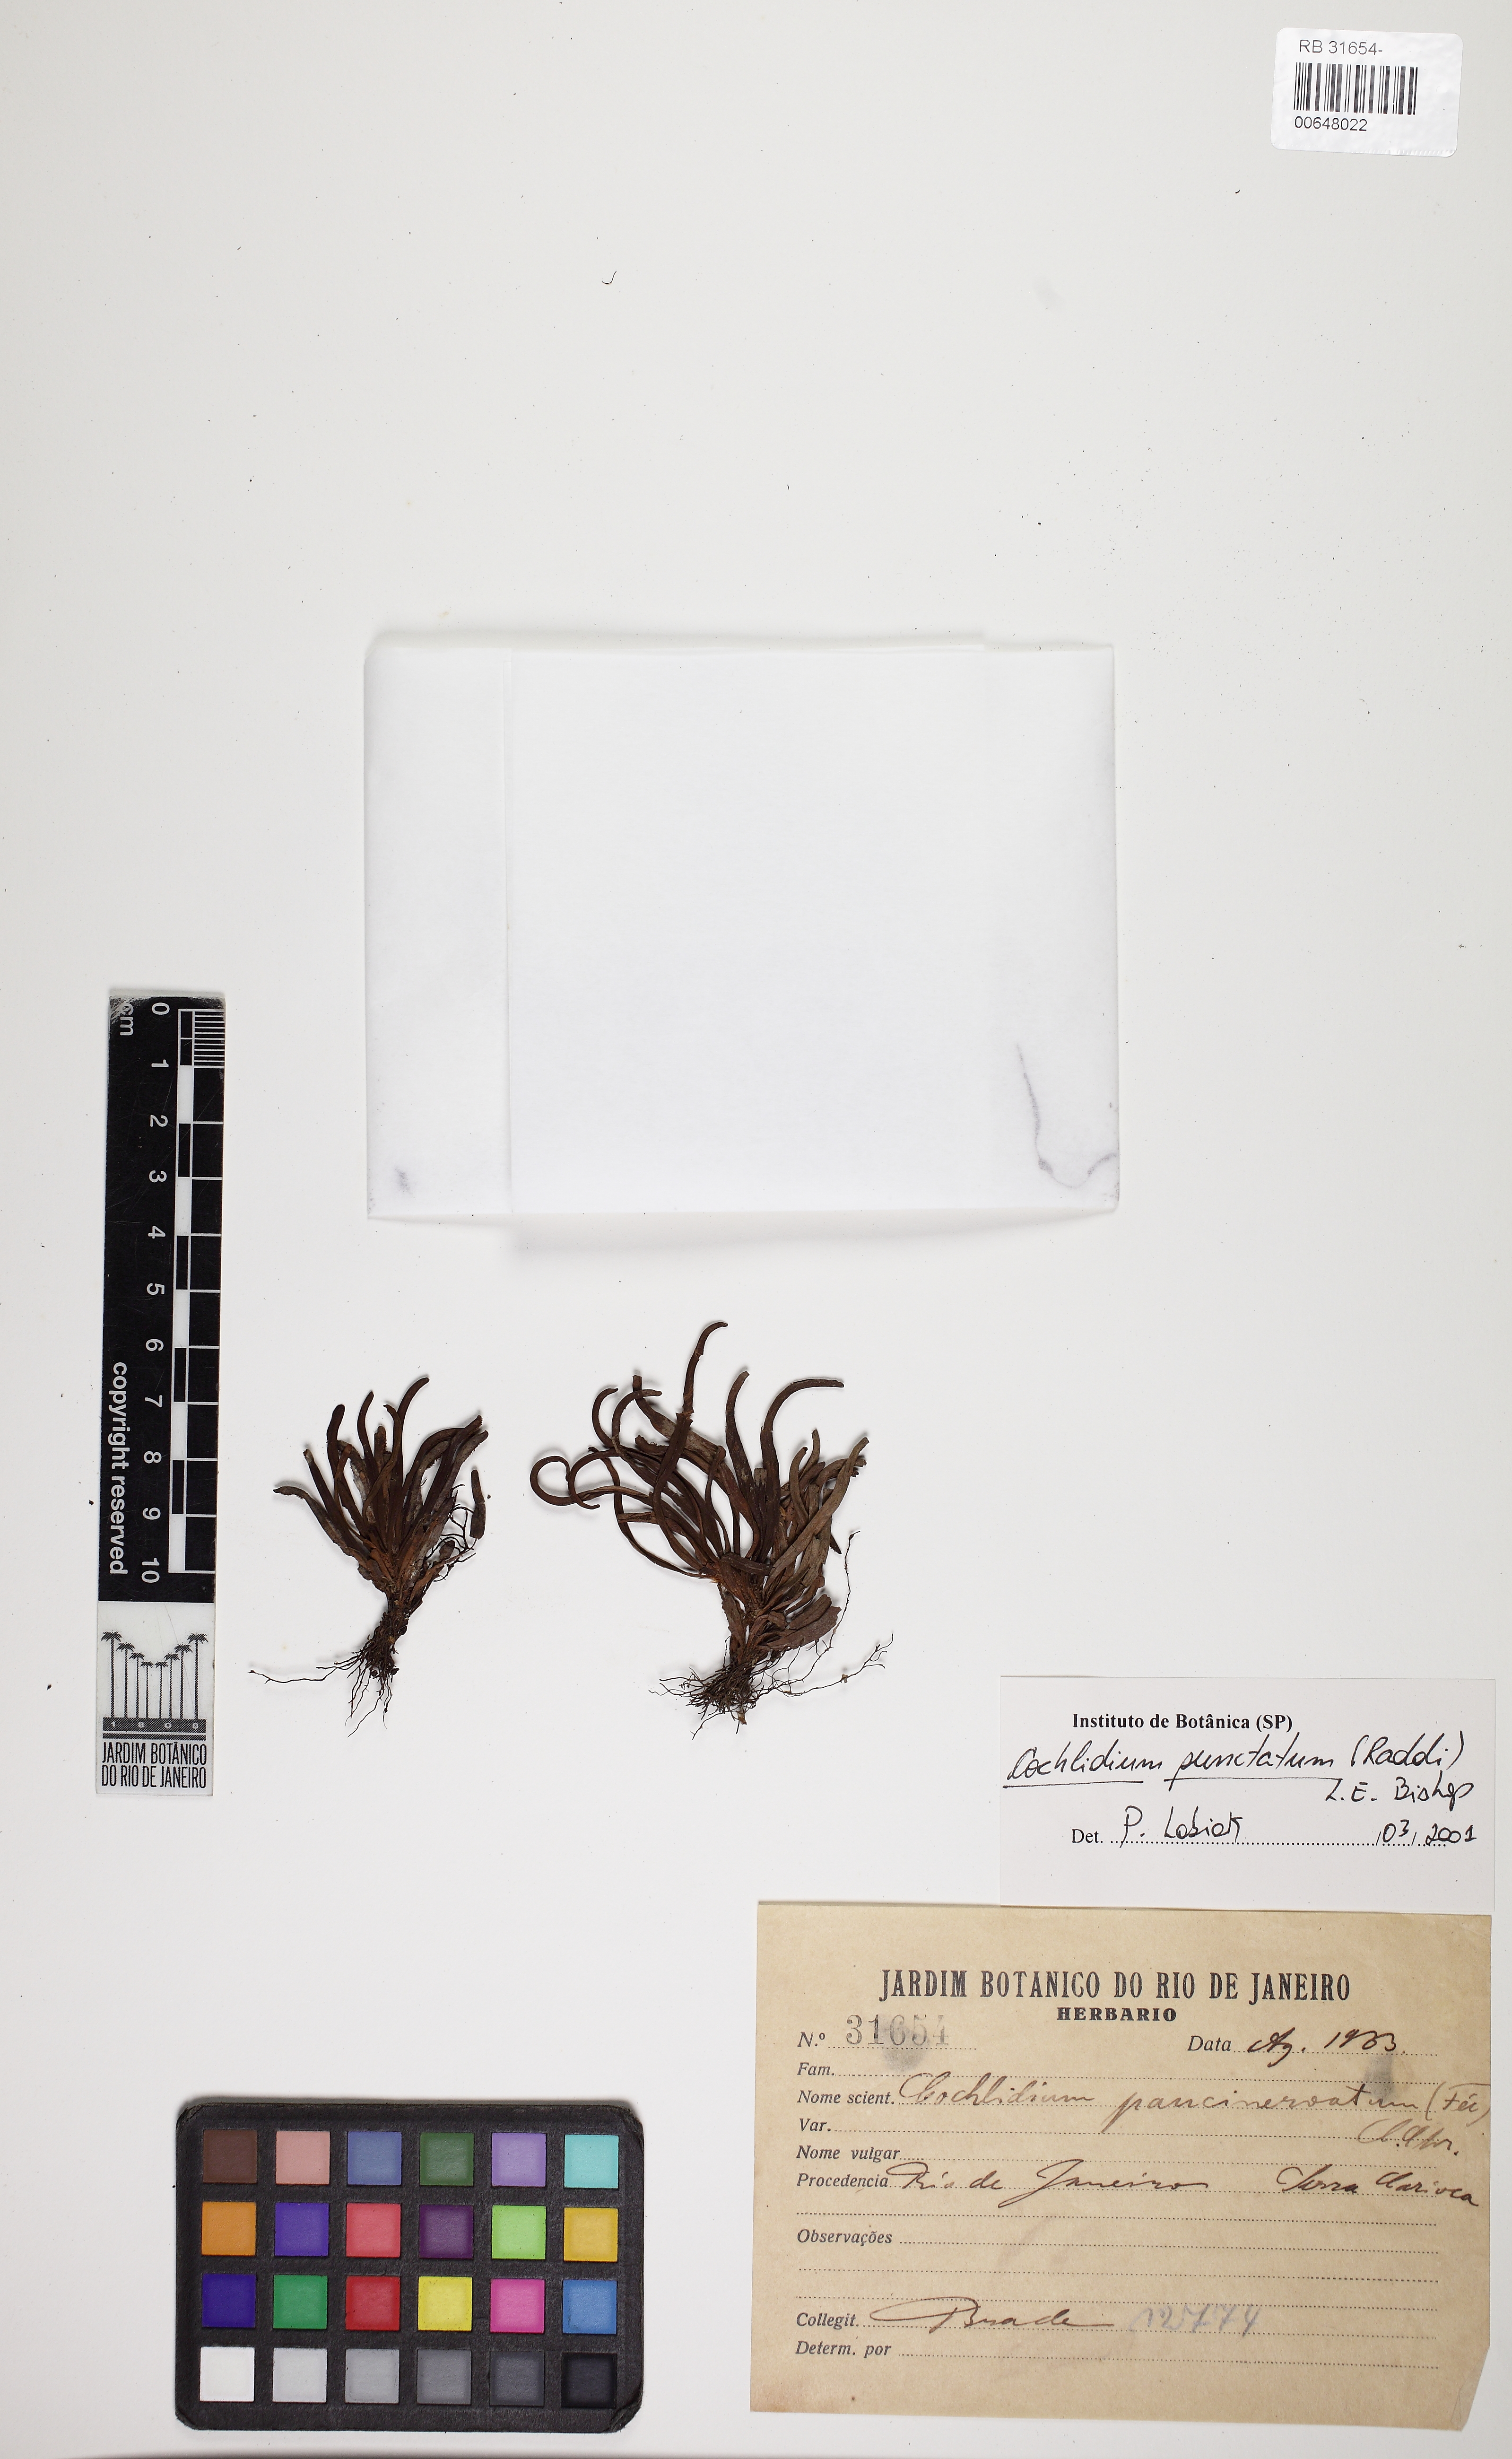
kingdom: Plantae
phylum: Tracheophyta
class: Polypodiopsida
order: Polypodiales
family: Polypodiaceae
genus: Cochlidium
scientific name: Cochlidium punctatum
